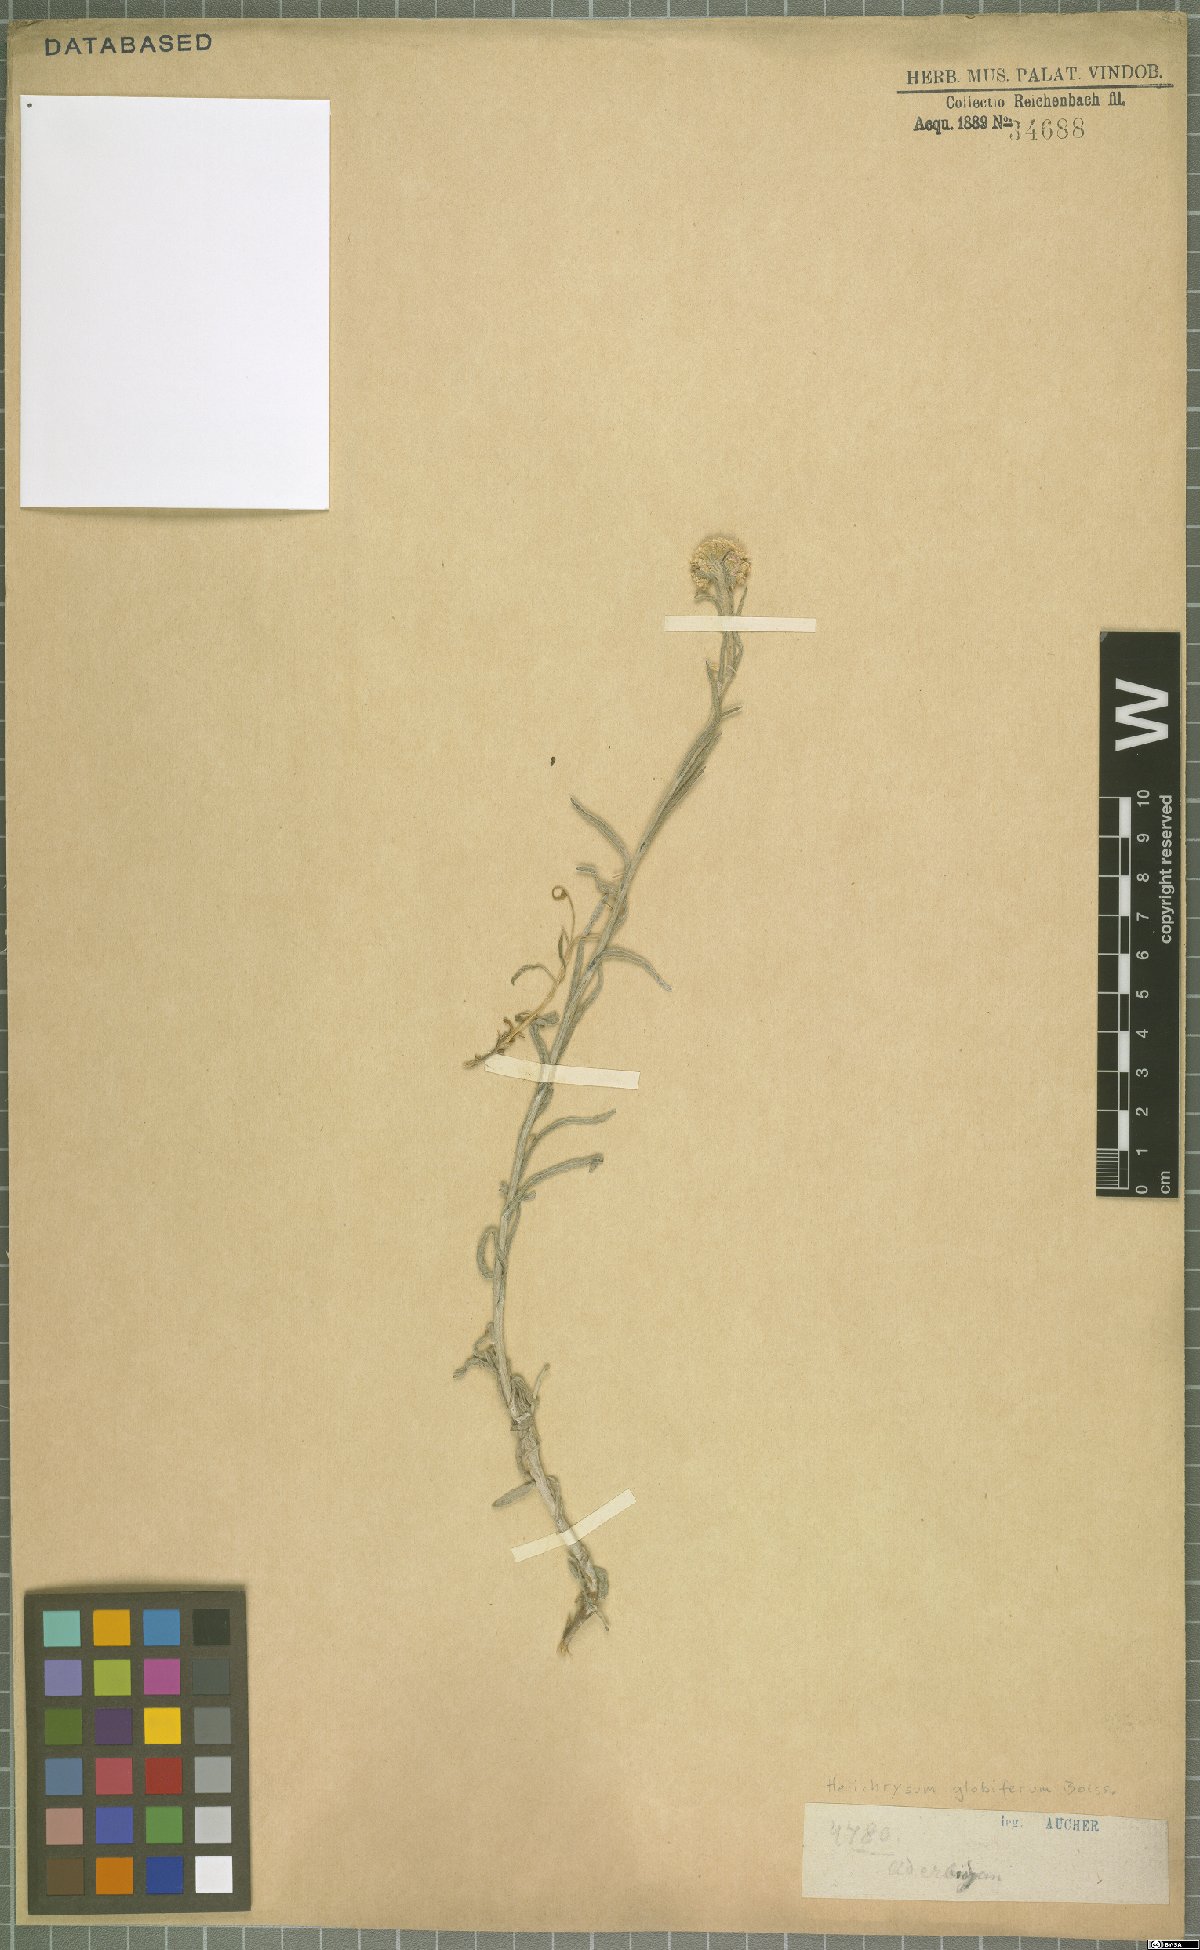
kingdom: Plantae
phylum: Tracheophyta
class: Magnoliopsida
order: Asterales
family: Asteraceae
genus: Helichrysum
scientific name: Helichrysum globiferum
